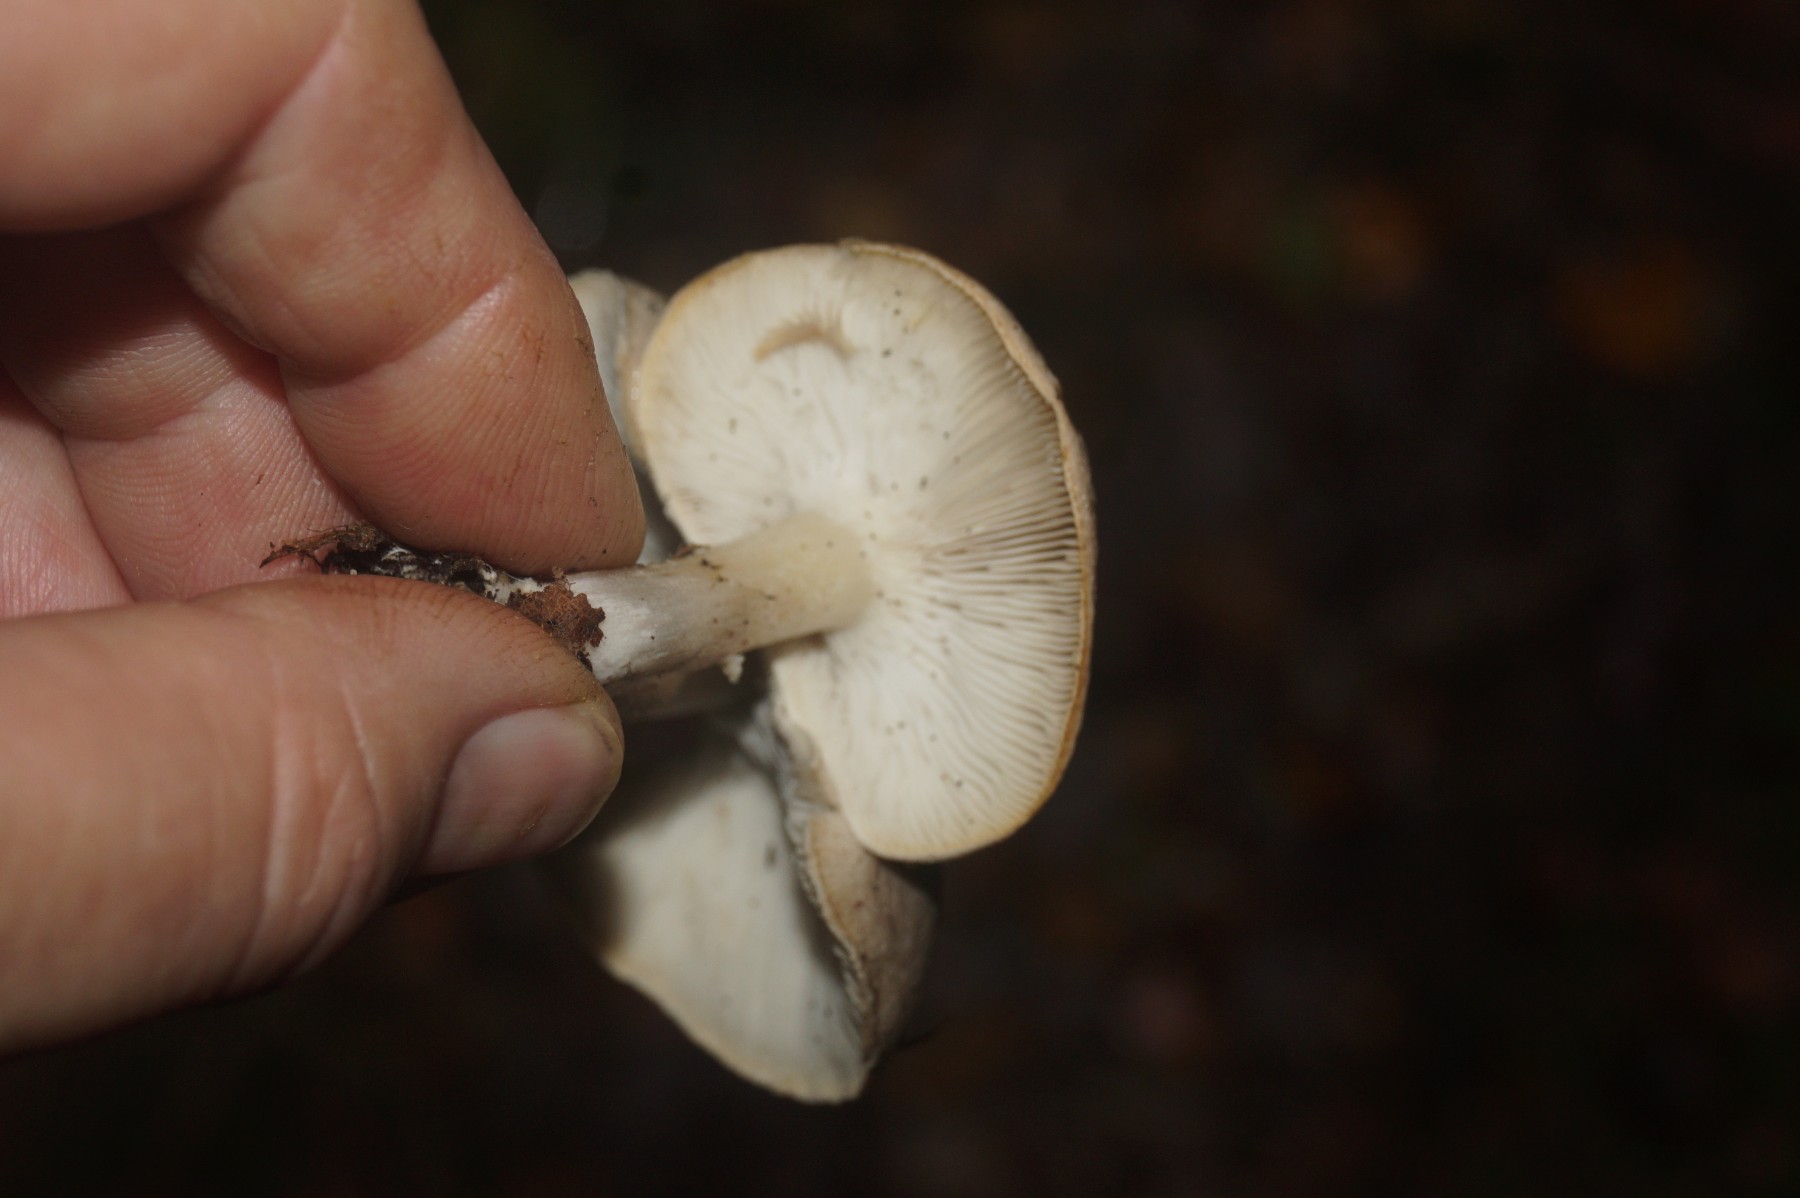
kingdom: Fungi
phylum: Basidiomycota
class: Agaricomycetes
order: Agaricales
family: Tricholomataceae
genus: Tricholoma
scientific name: Tricholoma
